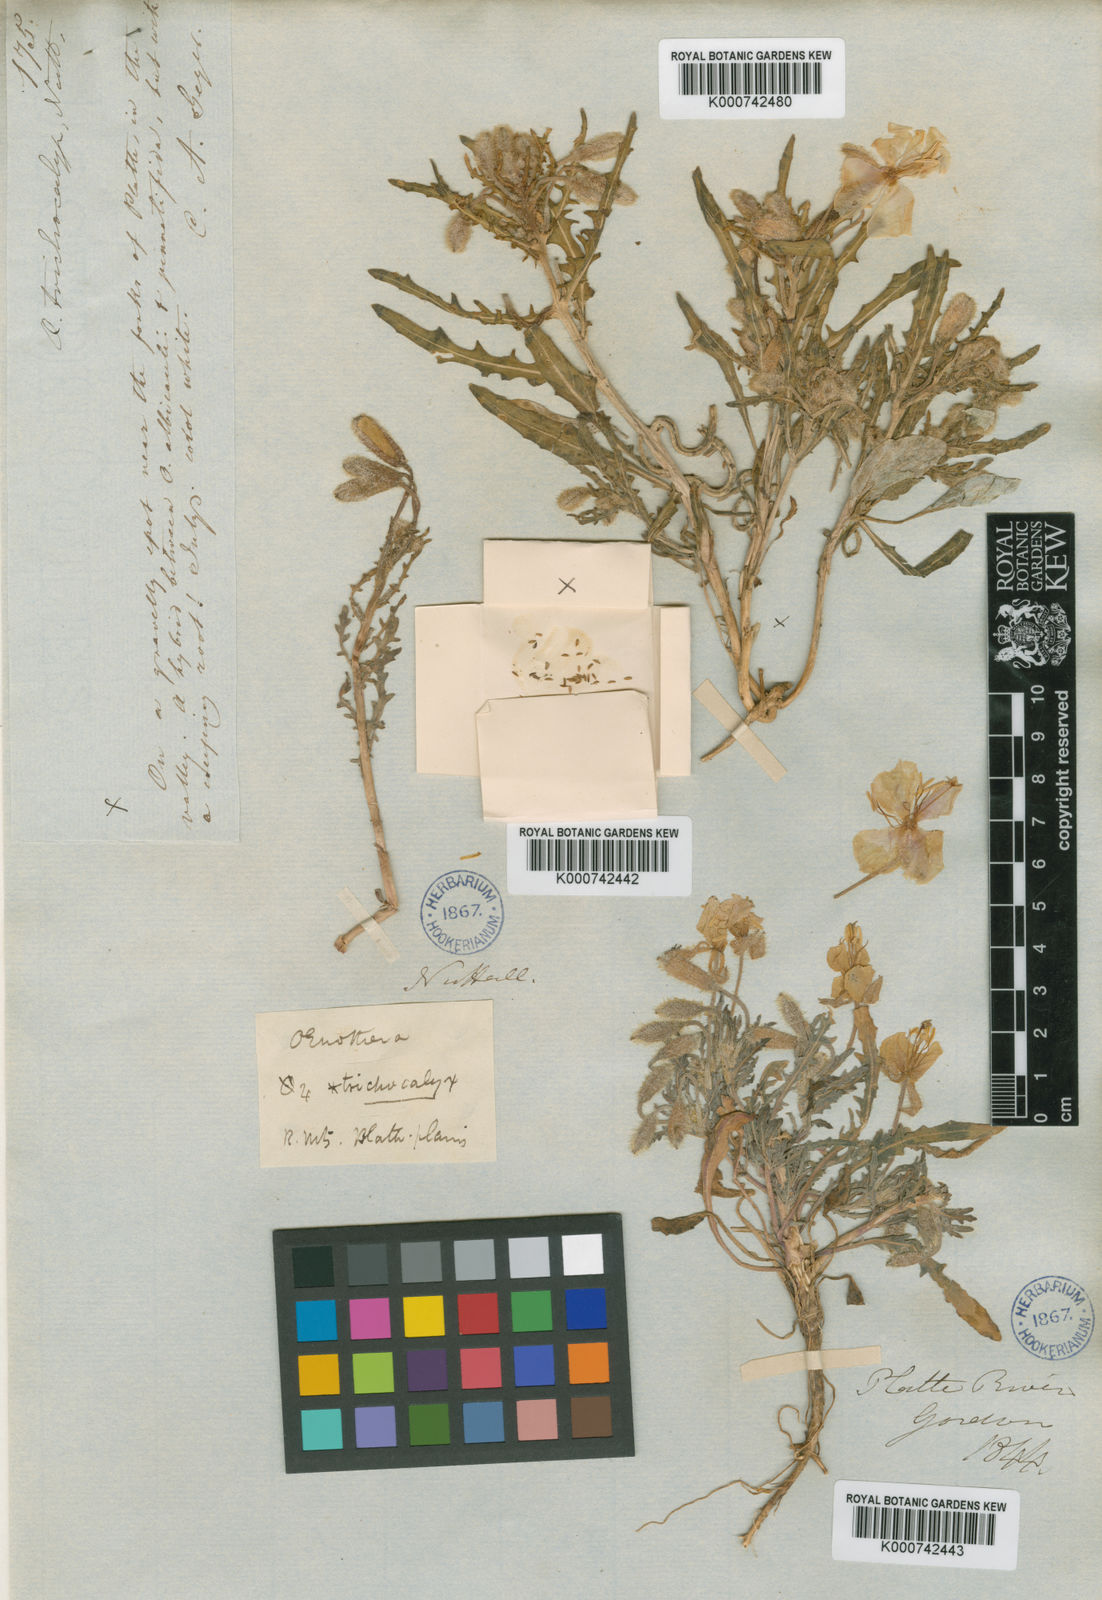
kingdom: Plantae
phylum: Tracheophyta
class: Magnoliopsida
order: Myrtales
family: Onagraceae
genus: Oenothera
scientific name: Oenothera pallida
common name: Pale evening-primrose
